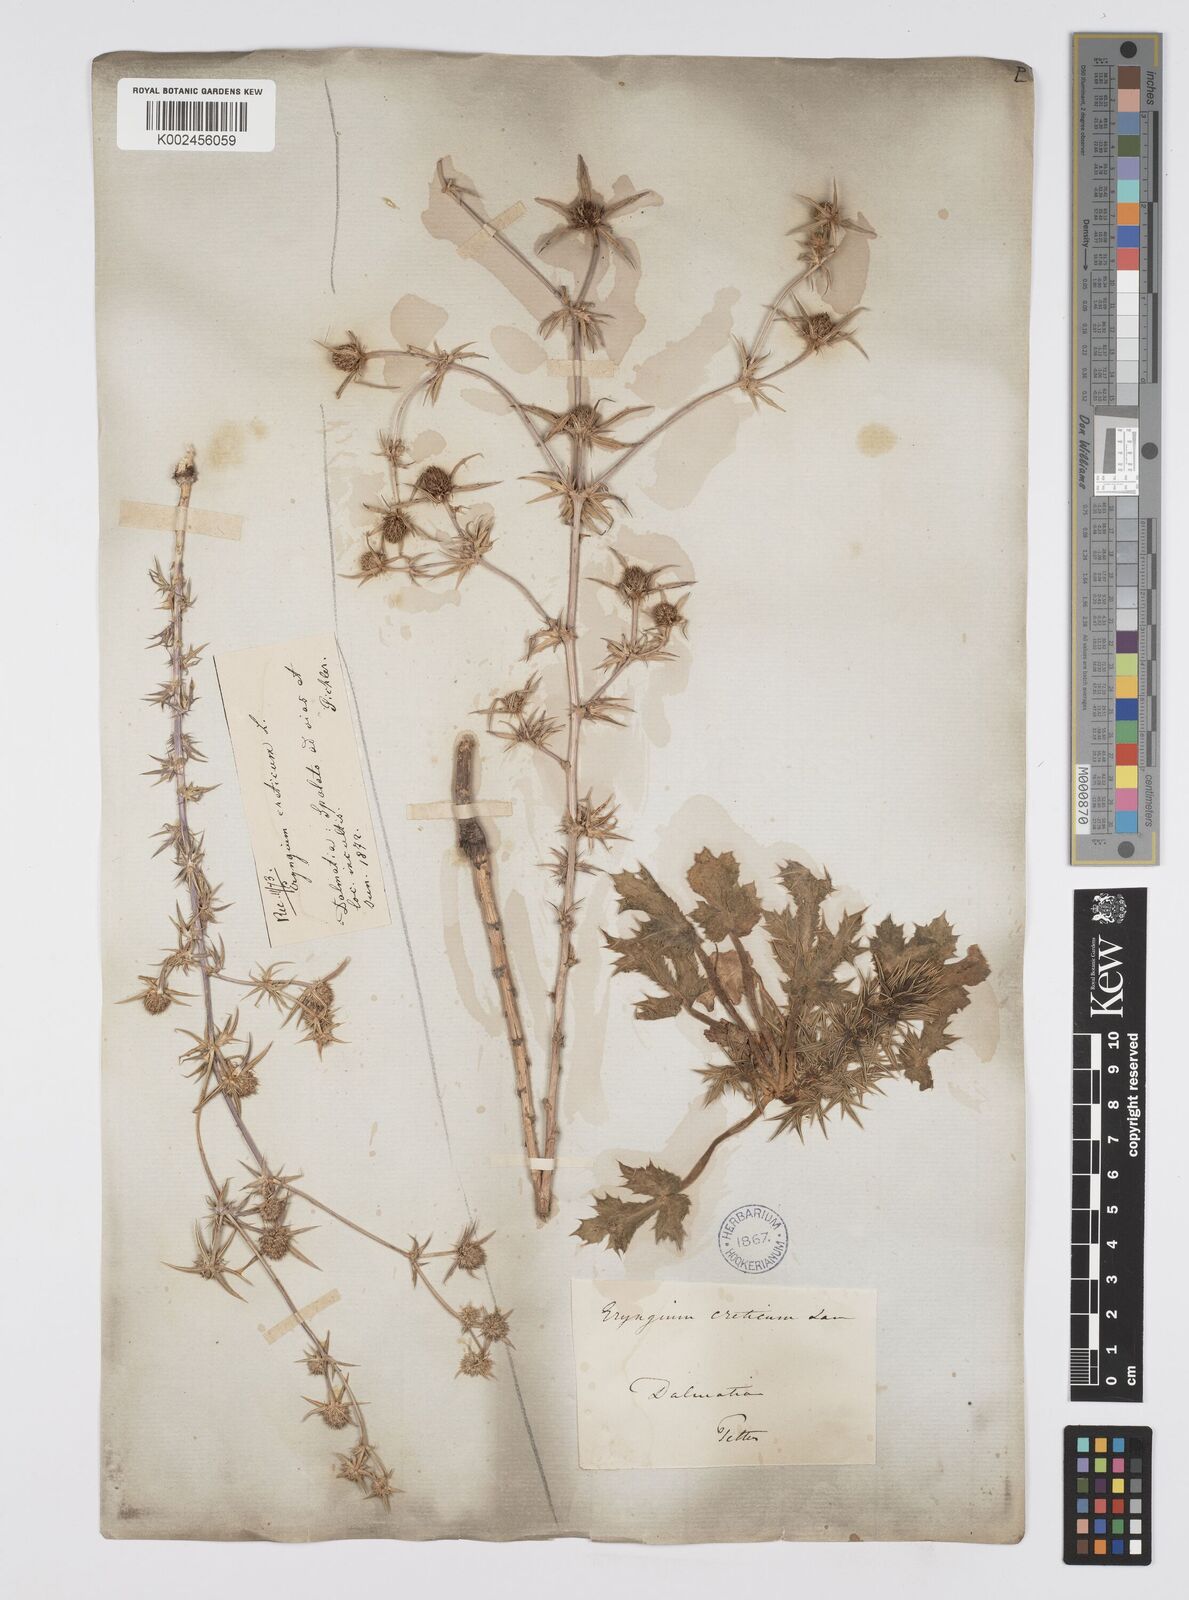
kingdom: Plantae
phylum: Tracheophyta
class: Magnoliopsida
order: Apiales
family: Apiaceae
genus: Eryngium
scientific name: Eryngium creticum
